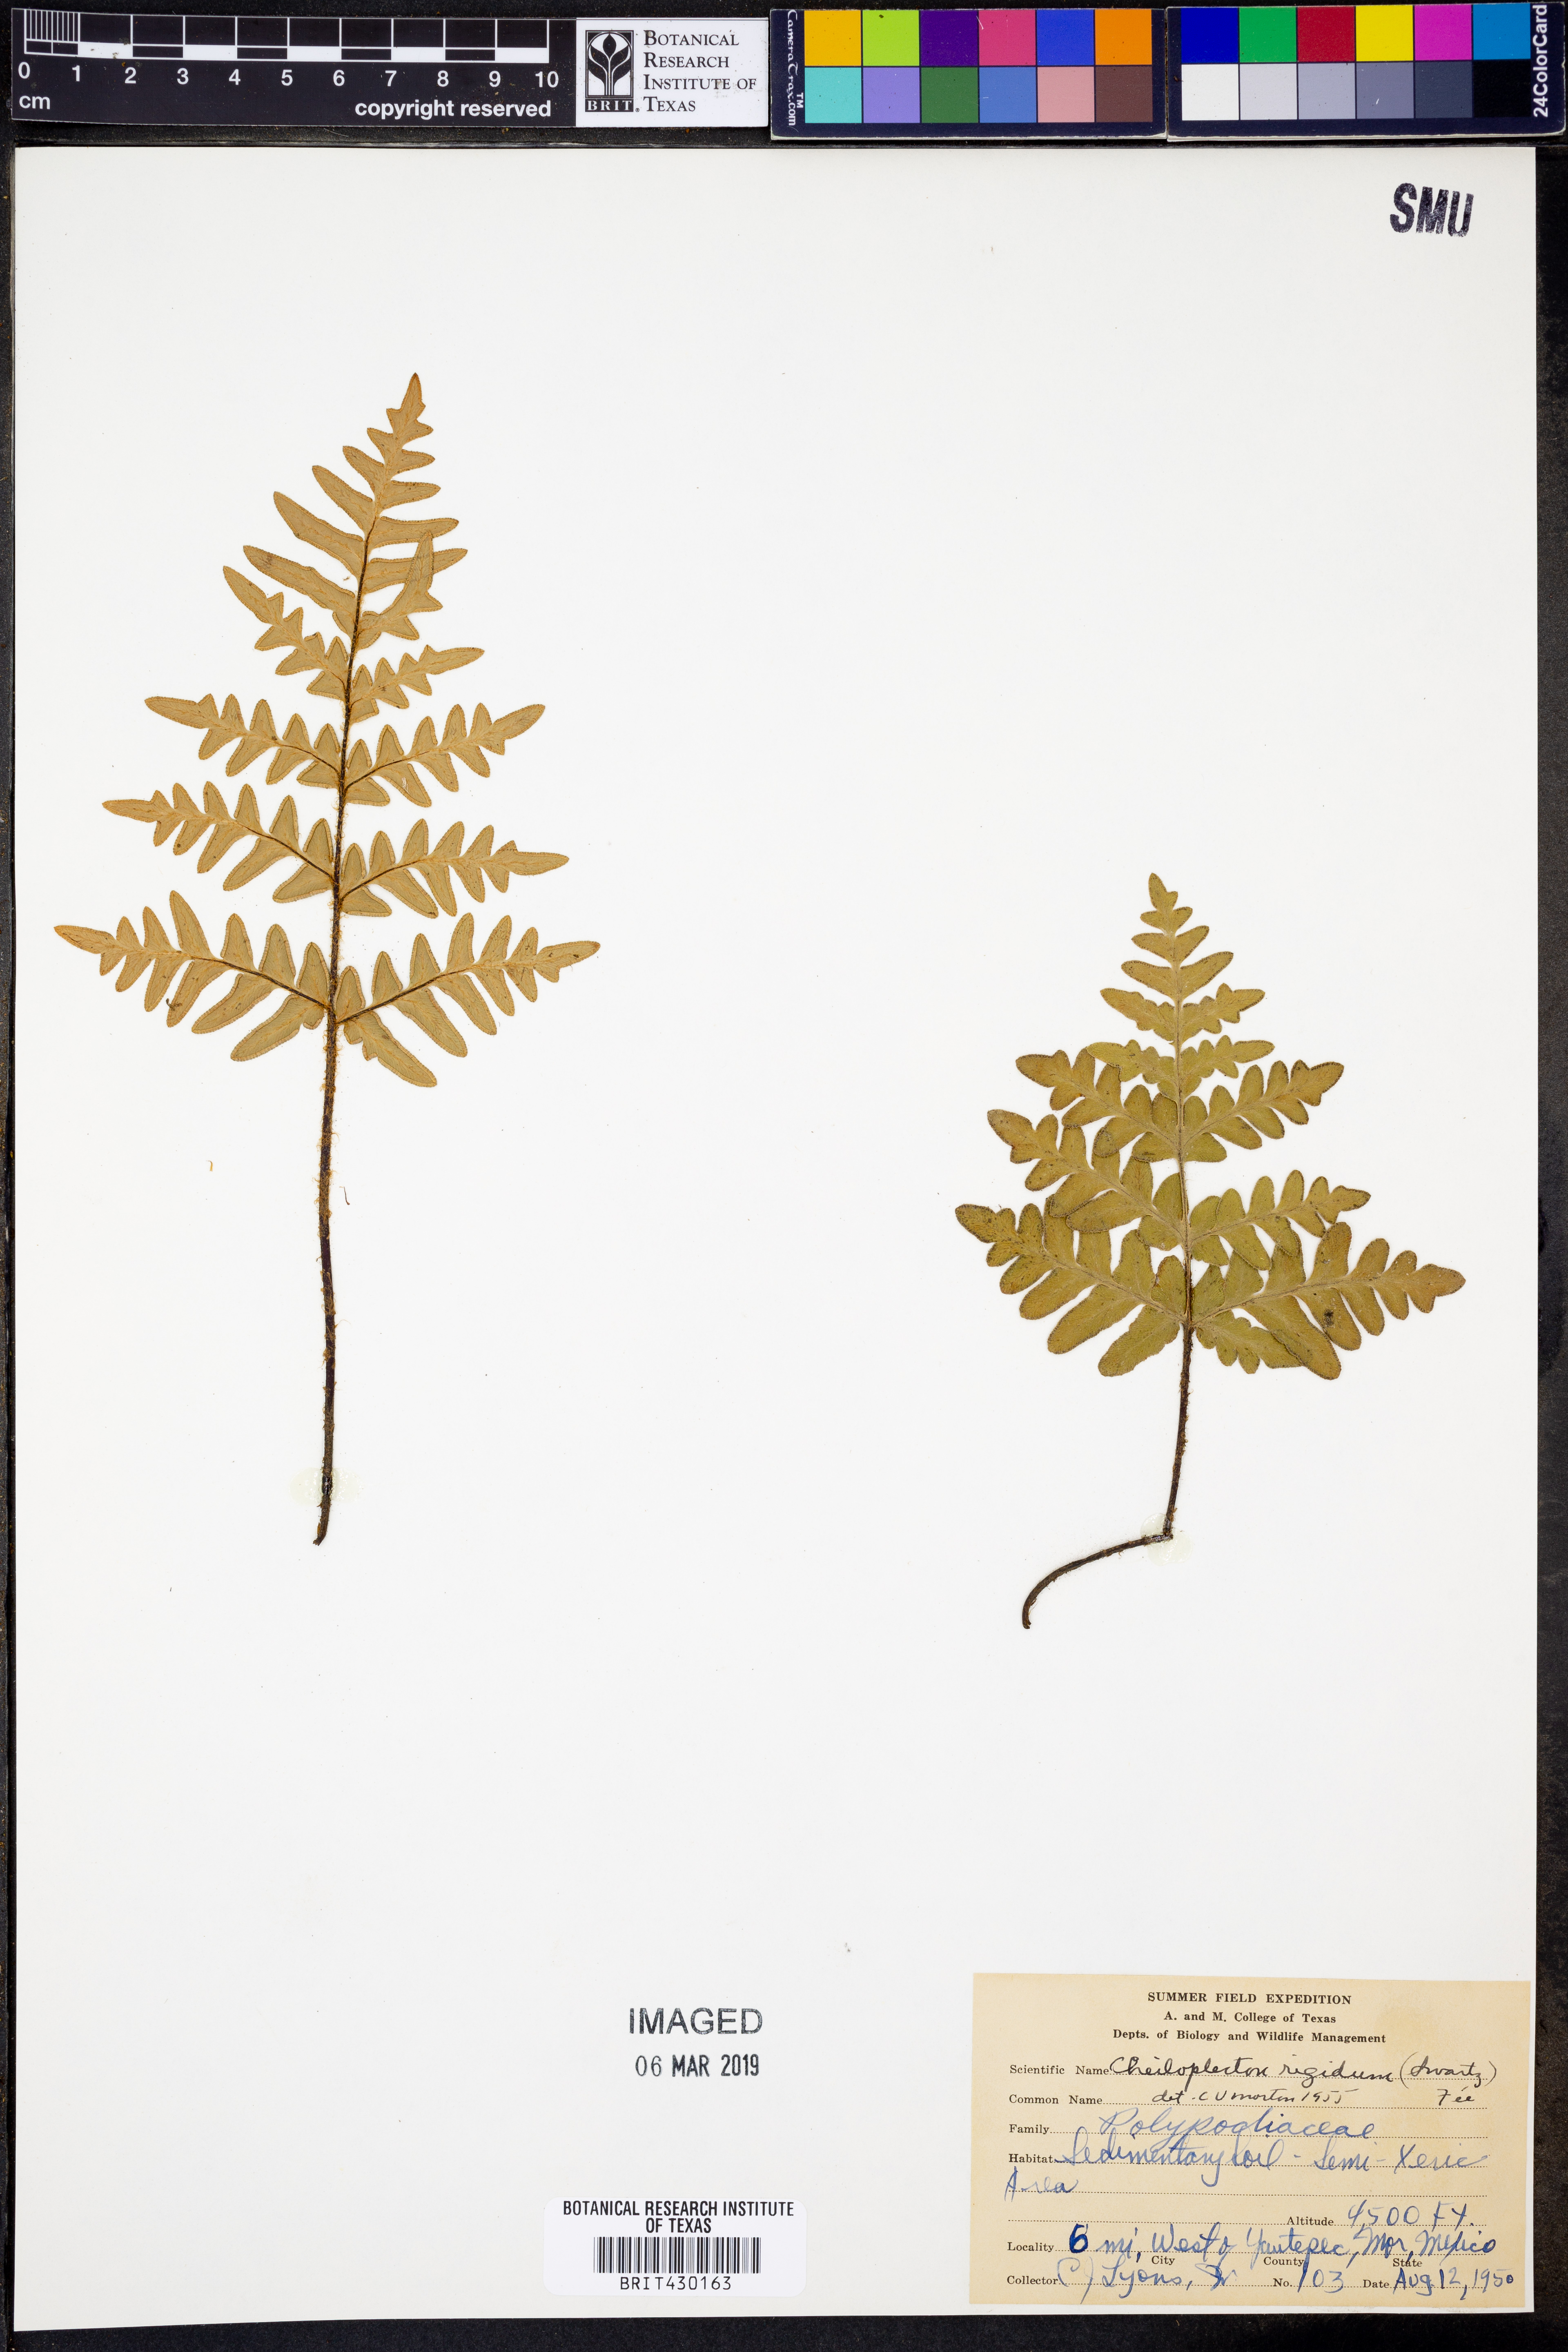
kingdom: Plantae
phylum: Tracheophyta
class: Polypodiopsida
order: Polypodiales
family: Pteridaceae
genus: Cheiloplecton
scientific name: Cheiloplecton rigidum
